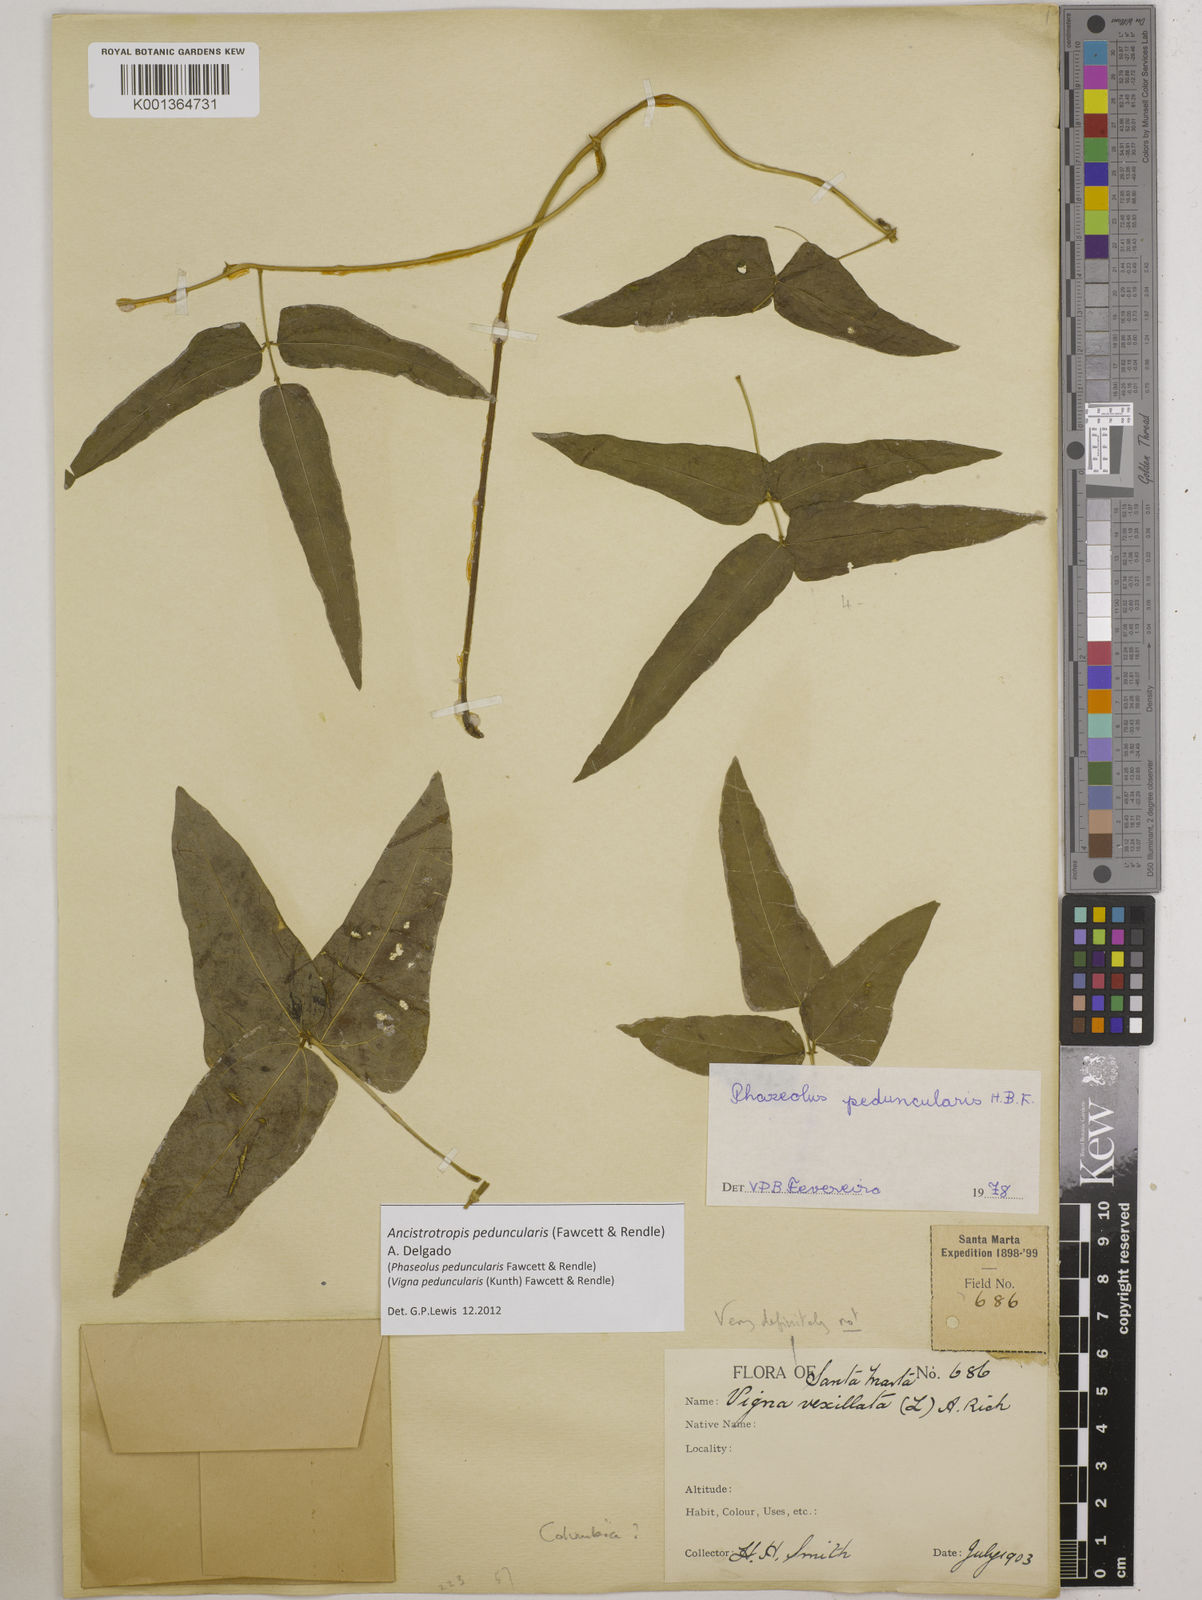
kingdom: Plantae
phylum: Tracheophyta
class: Magnoliopsida
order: Fabales
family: Fabaceae
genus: Ancistrotropis
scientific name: Ancistrotropis peduncularis
